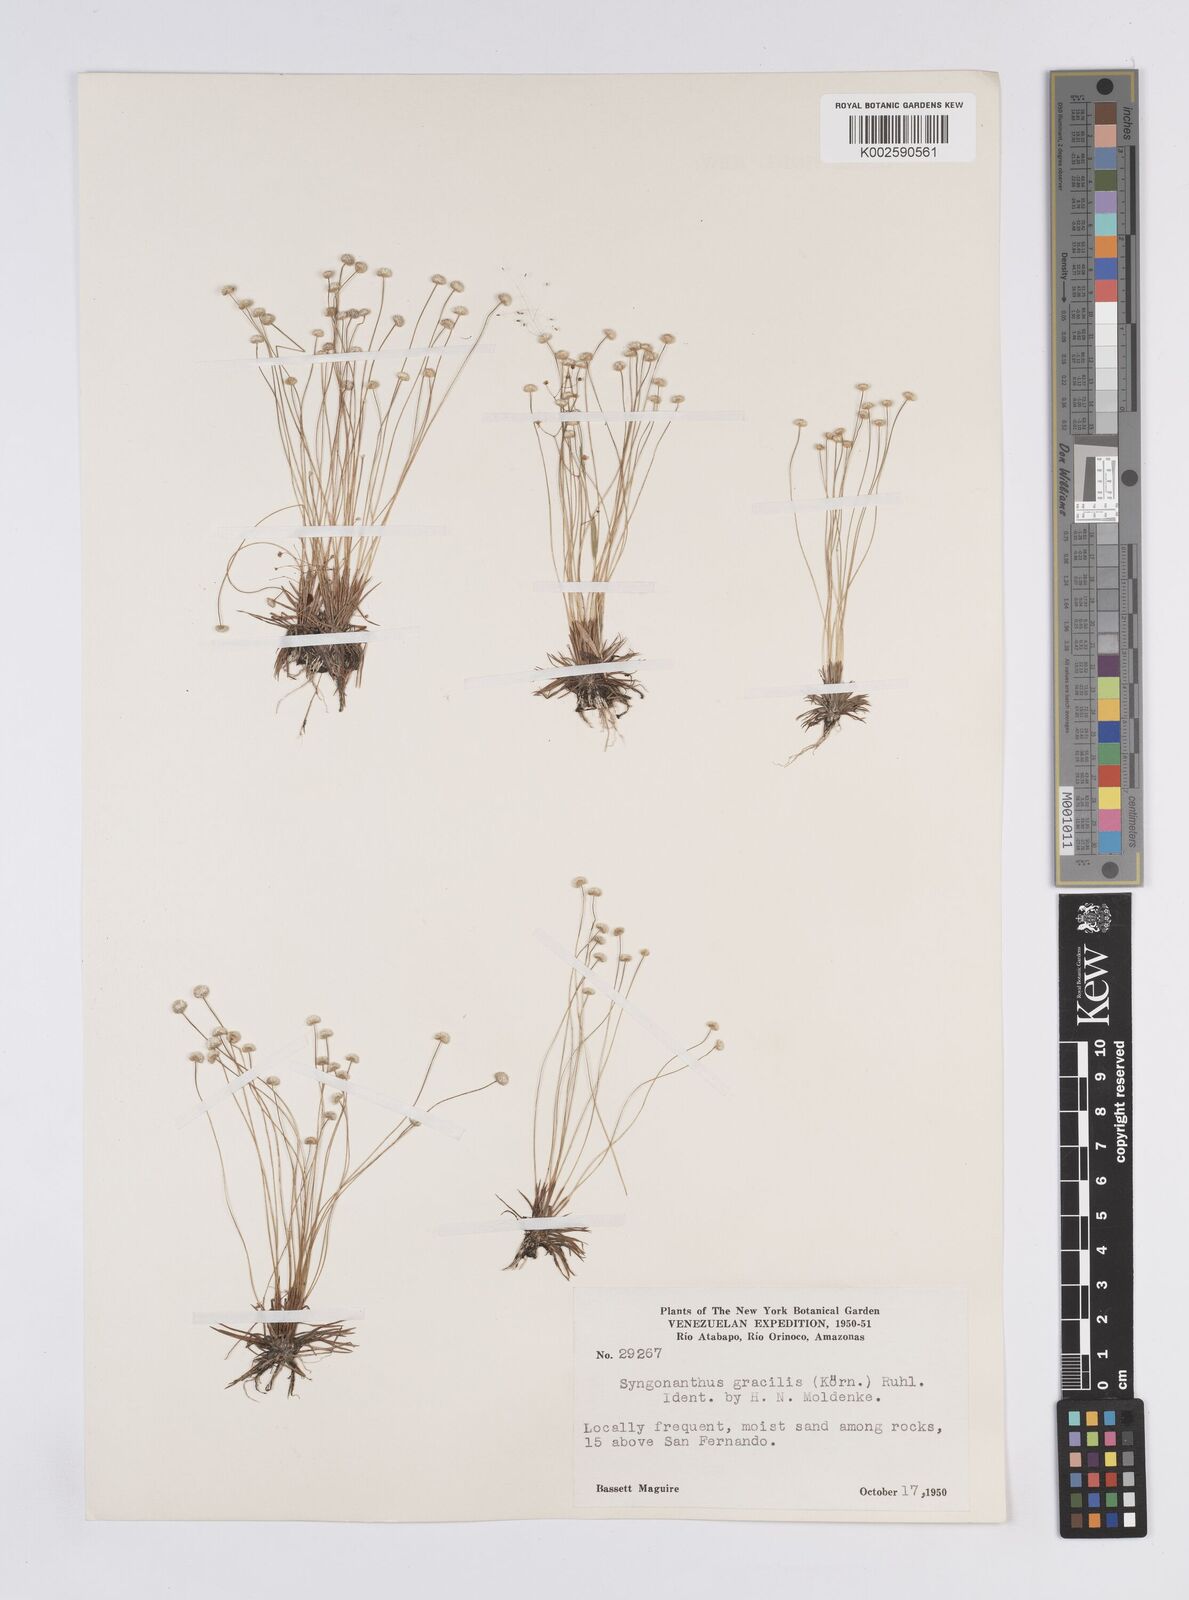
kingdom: Plantae
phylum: Tracheophyta
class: Liliopsida
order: Poales
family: Eriocaulaceae
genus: Syngonanthus
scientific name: Syngonanthus
